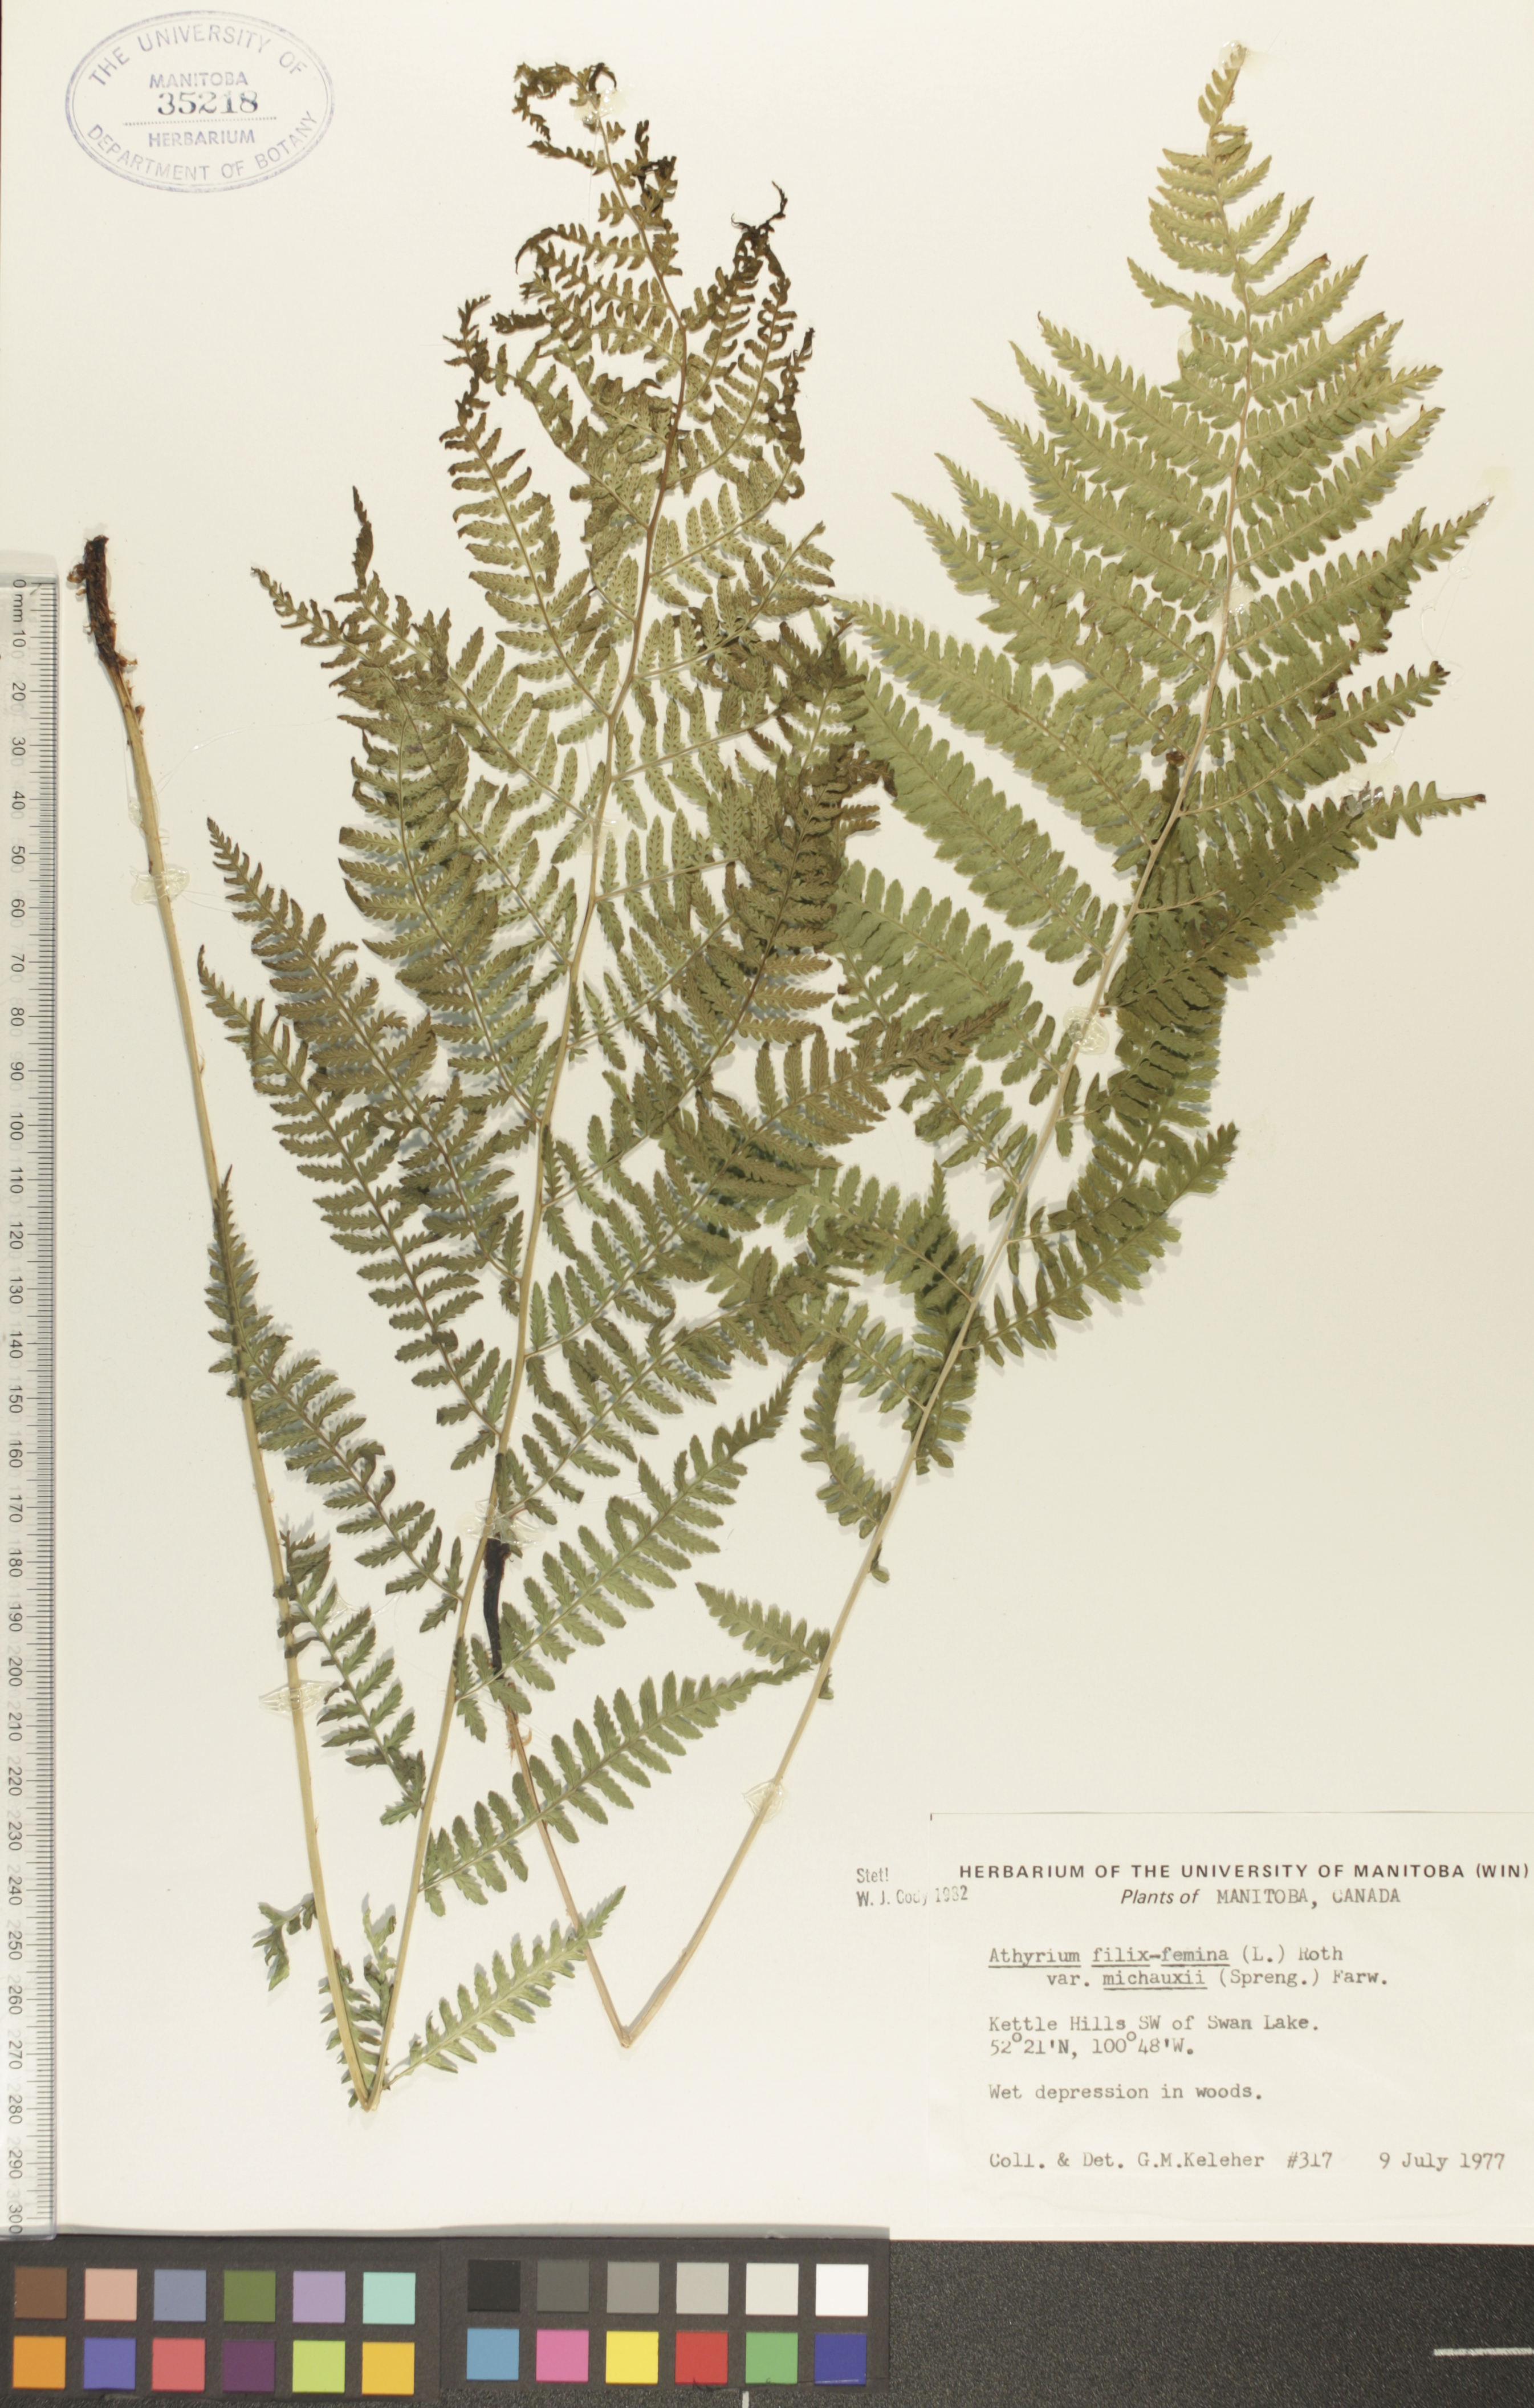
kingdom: Plantae
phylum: Tracheophyta
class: Polypodiopsida
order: Polypodiales
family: Athyriaceae
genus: Athyrium
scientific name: Athyrium angustum
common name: Northern lady fern
